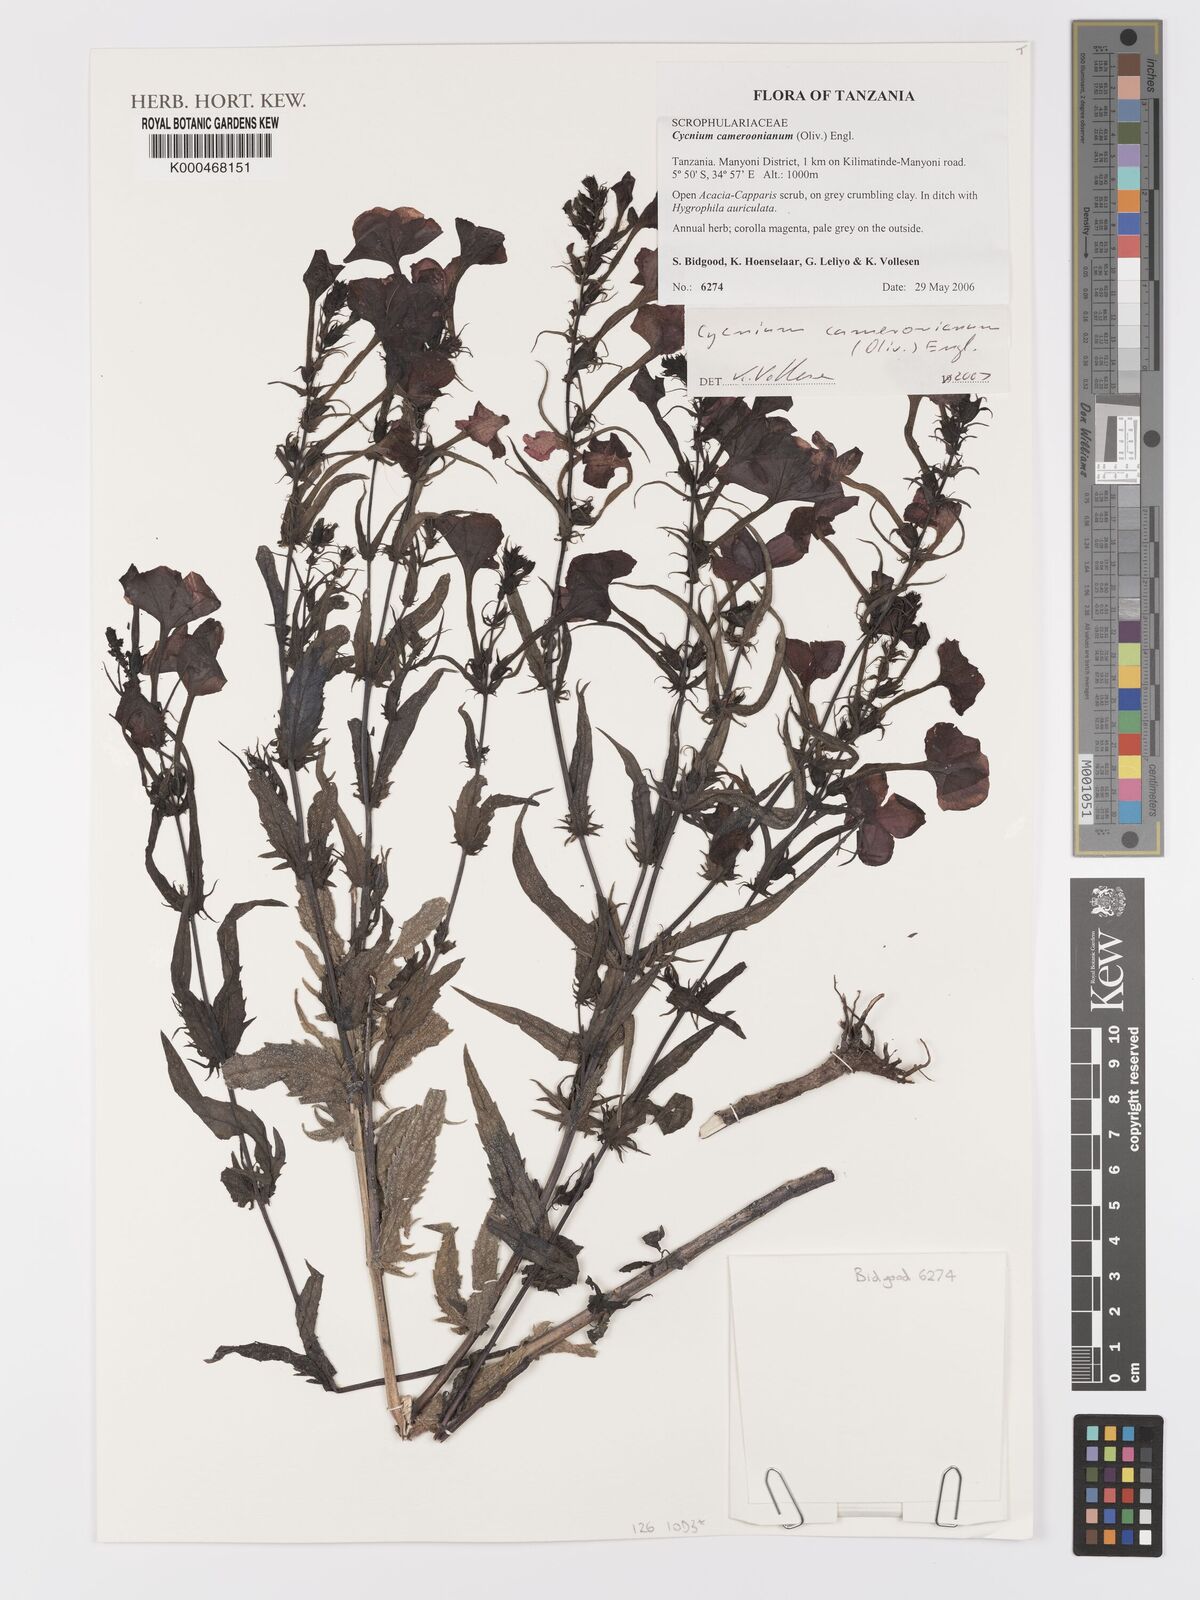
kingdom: Plantae
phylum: Tracheophyta
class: Magnoliopsida
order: Lamiales
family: Orobanchaceae
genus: Cycnium
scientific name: Cycnium cameronianum
